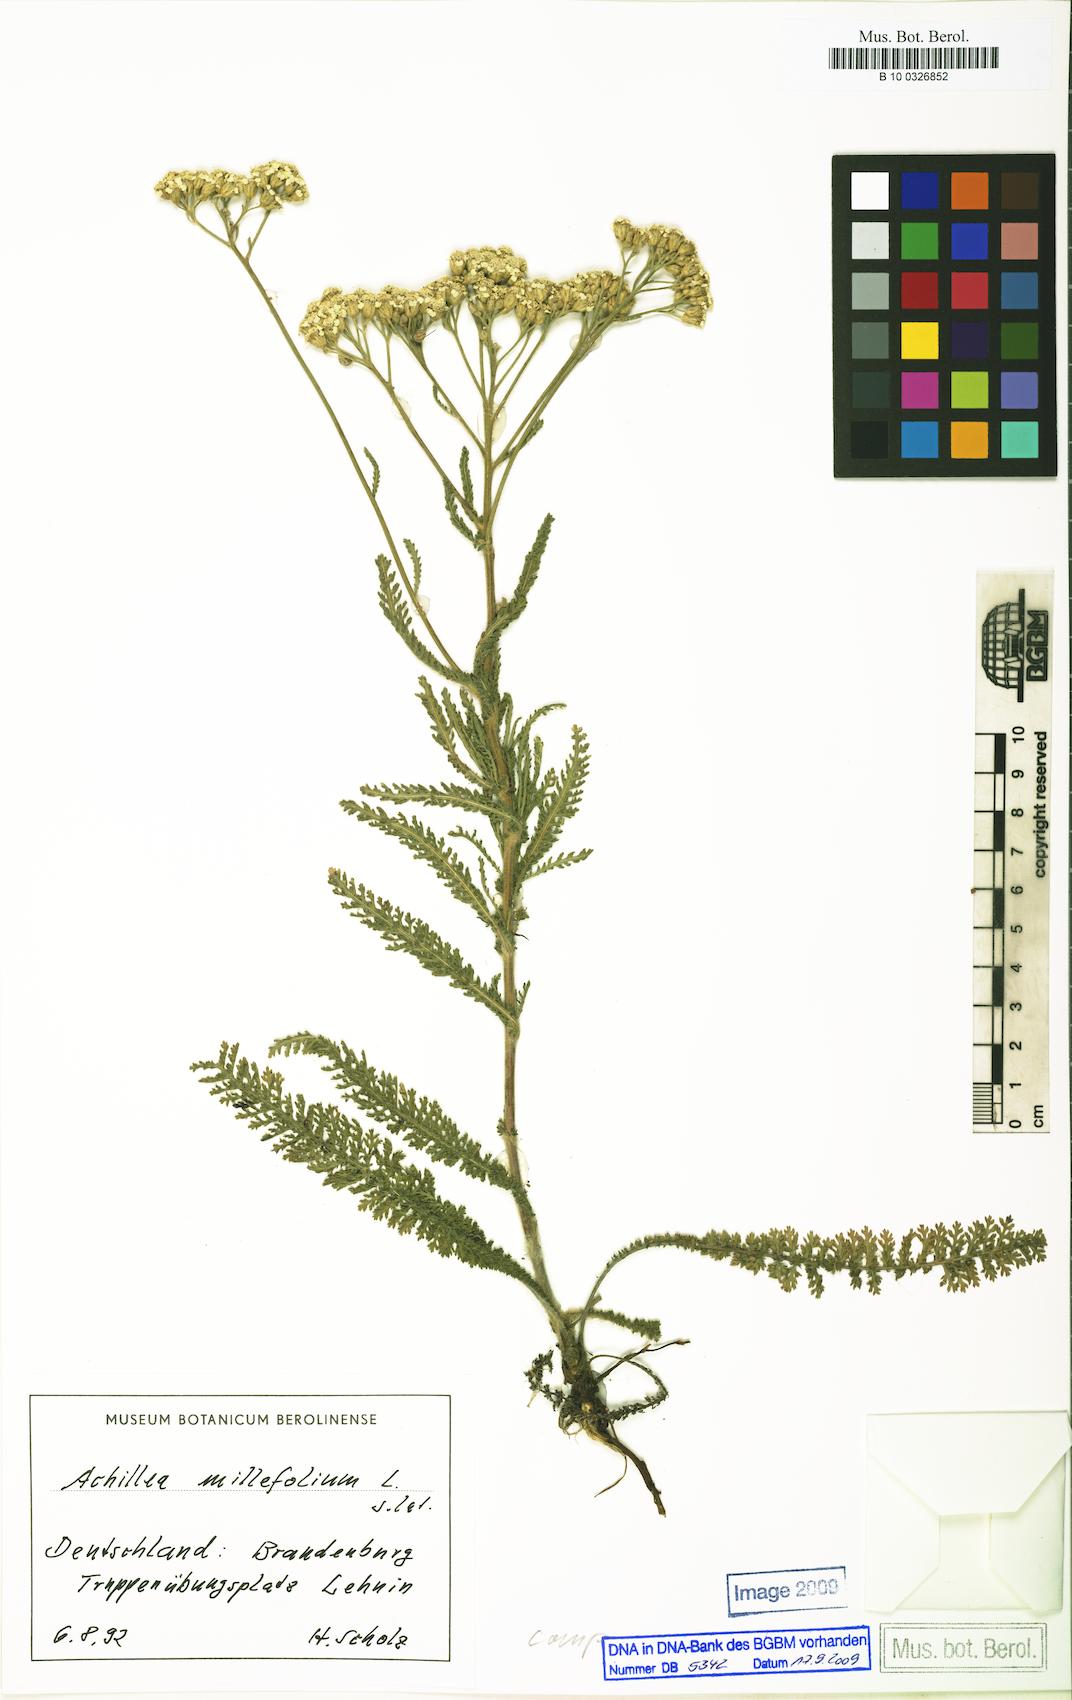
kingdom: Plantae
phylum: Tracheophyta
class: Magnoliopsida
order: Asterales
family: Asteraceae
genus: Achillea
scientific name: Achillea millefolium
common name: Yarrow
